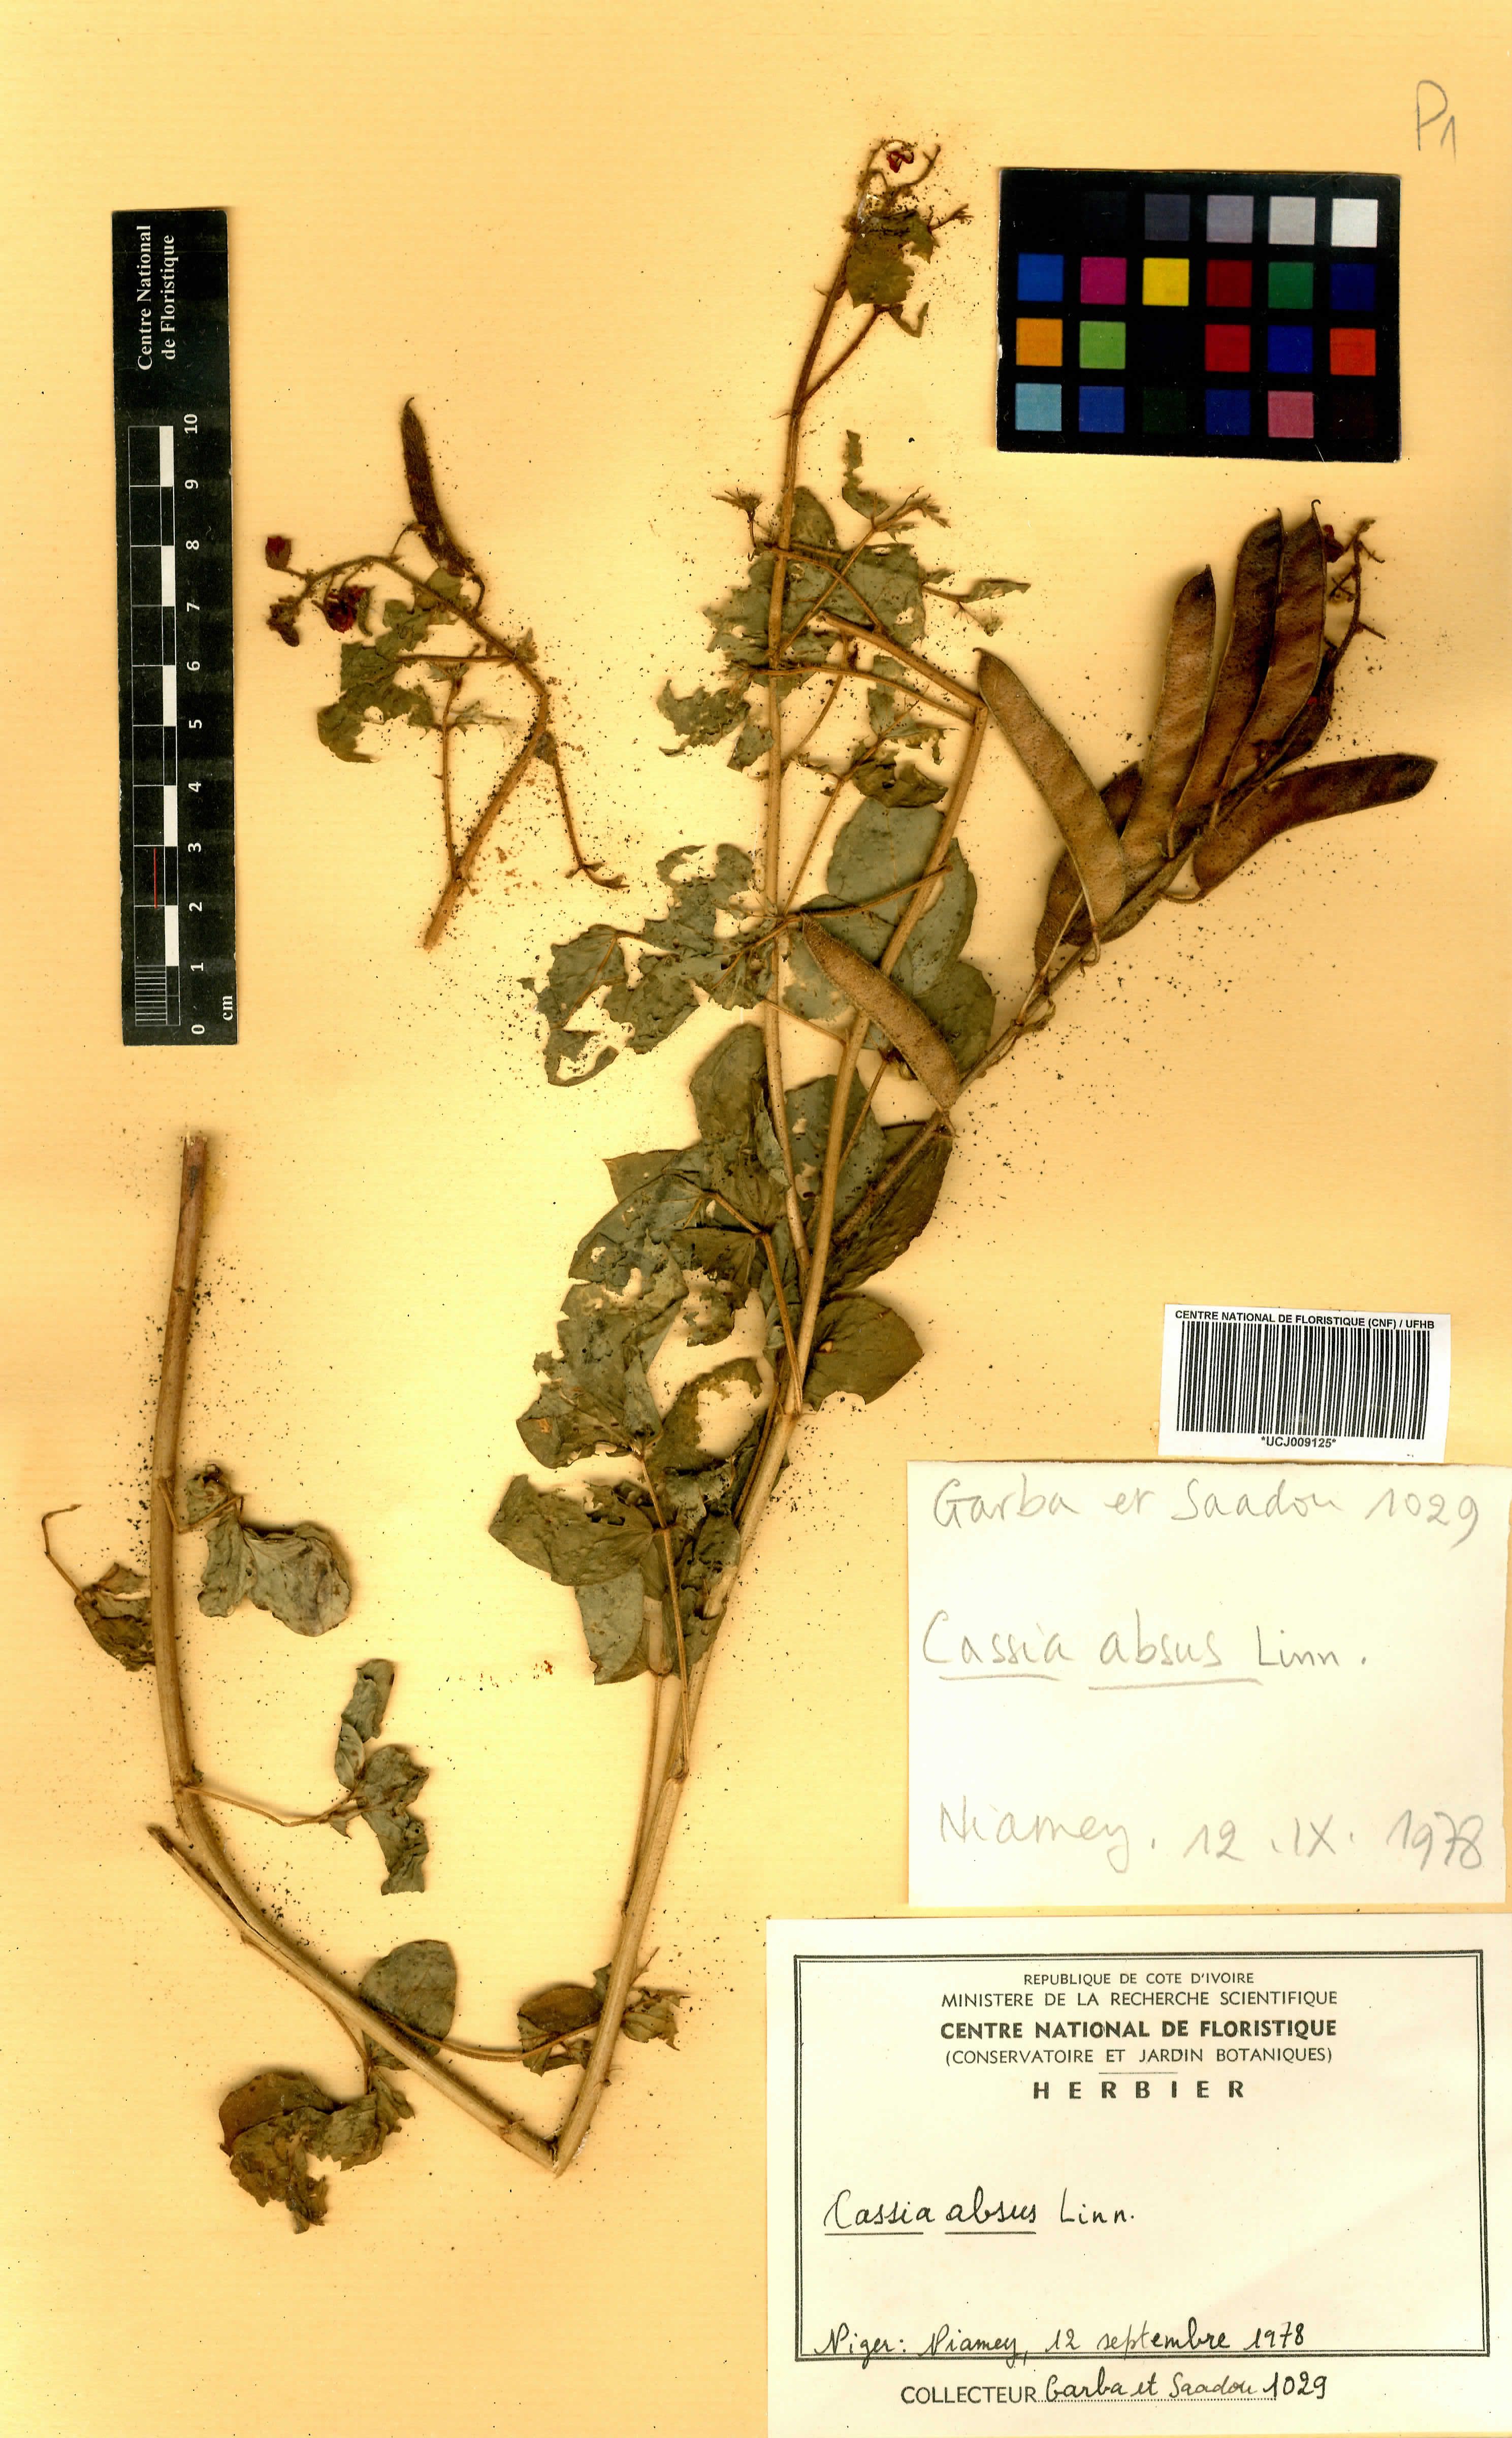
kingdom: Plantae
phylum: Tracheophyta
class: Magnoliopsida
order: Fabales
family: Fabaceae
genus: Chamaecrista
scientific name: Chamaecrista absus
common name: Tropical sensitive pea
